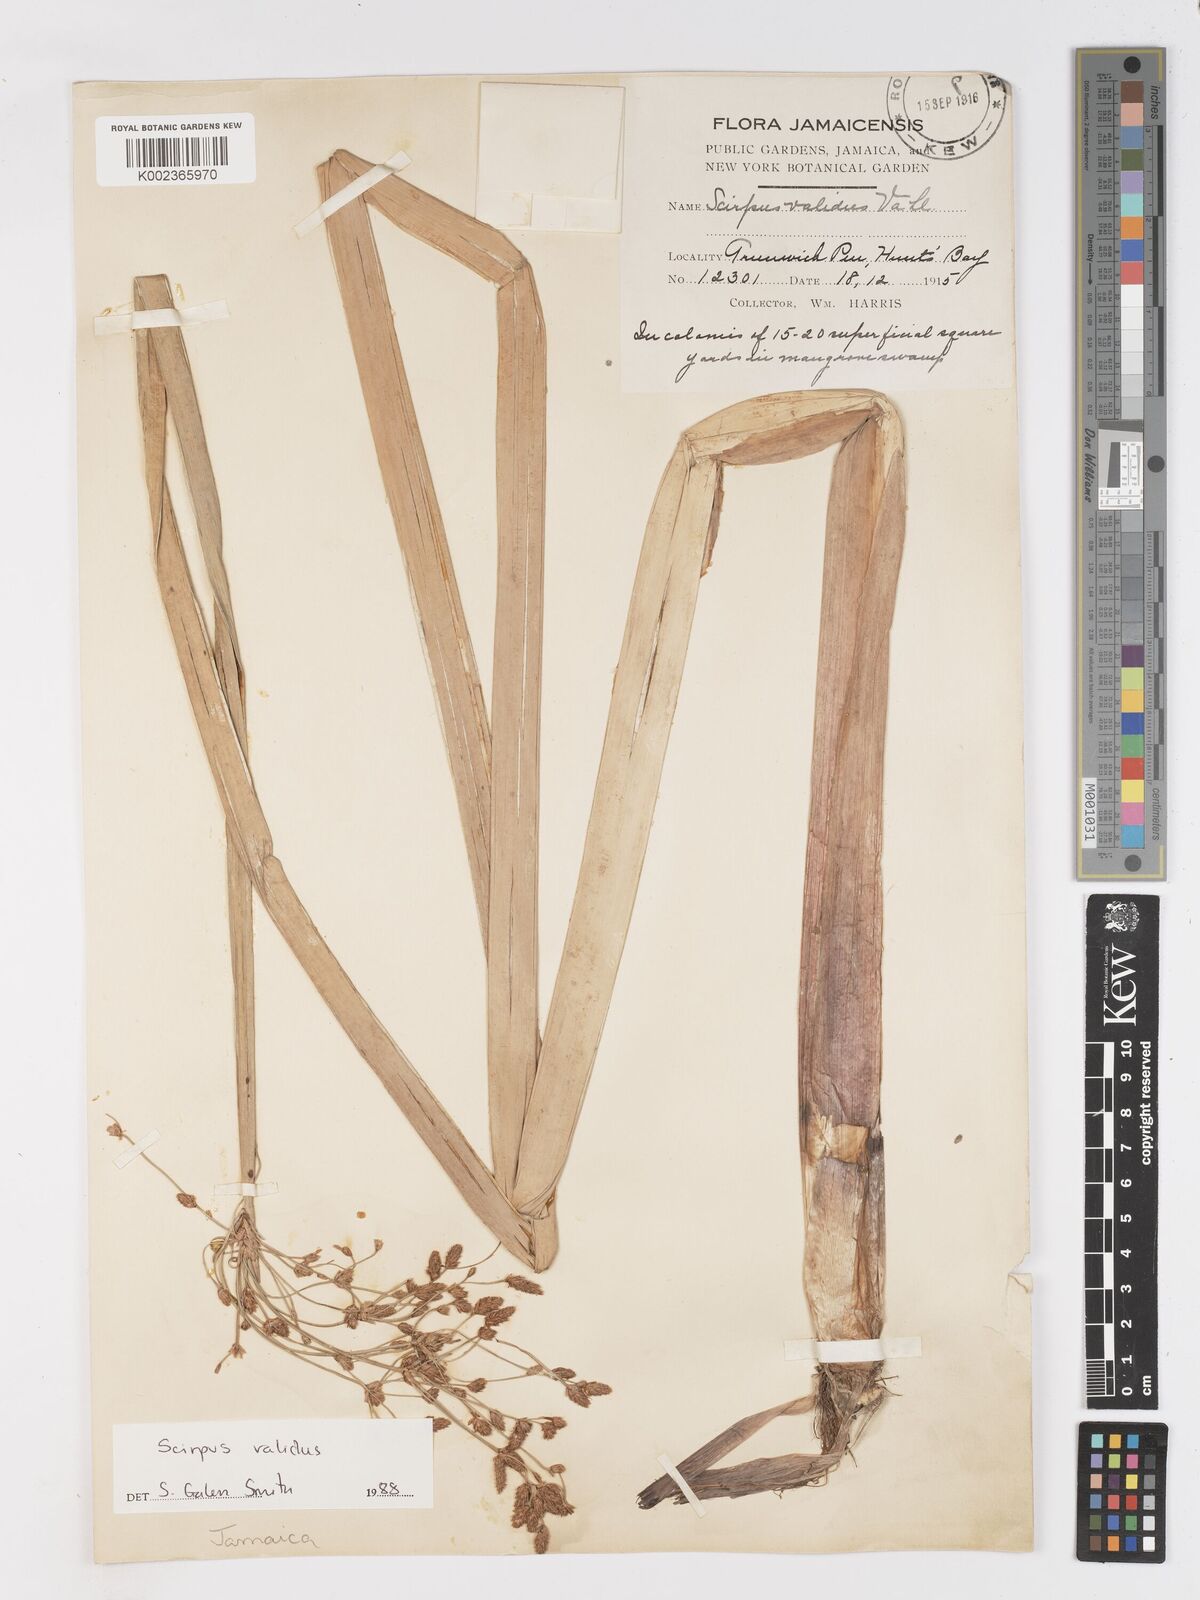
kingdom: Plantae
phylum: Tracheophyta
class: Liliopsida
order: Poales
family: Cyperaceae
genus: Schoenoplectus
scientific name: Schoenoplectus lacustris
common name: Common club-rush
